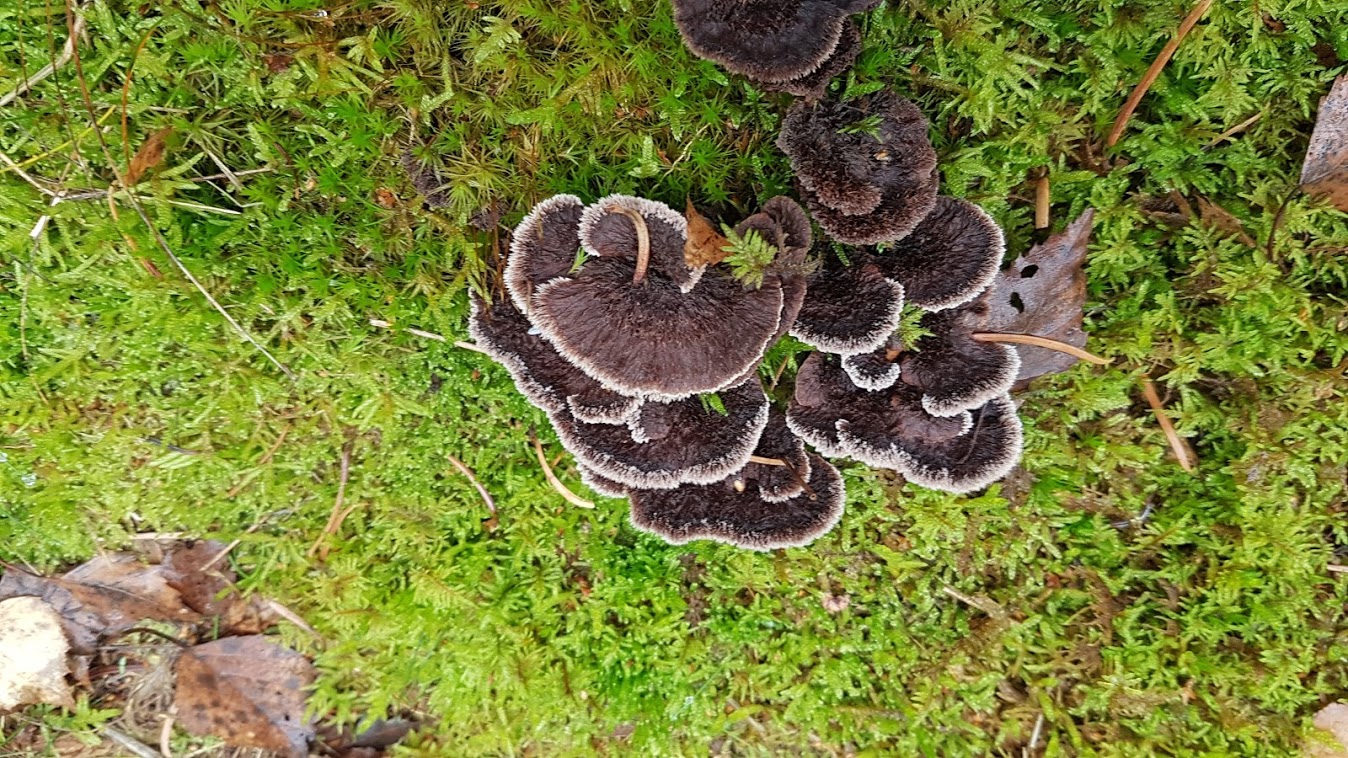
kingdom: Fungi
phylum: Basidiomycota
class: Agaricomycetes
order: Thelephorales
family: Thelephoraceae
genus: Thelephora
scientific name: Thelephora terrestris
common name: fliget frynsesvamp
